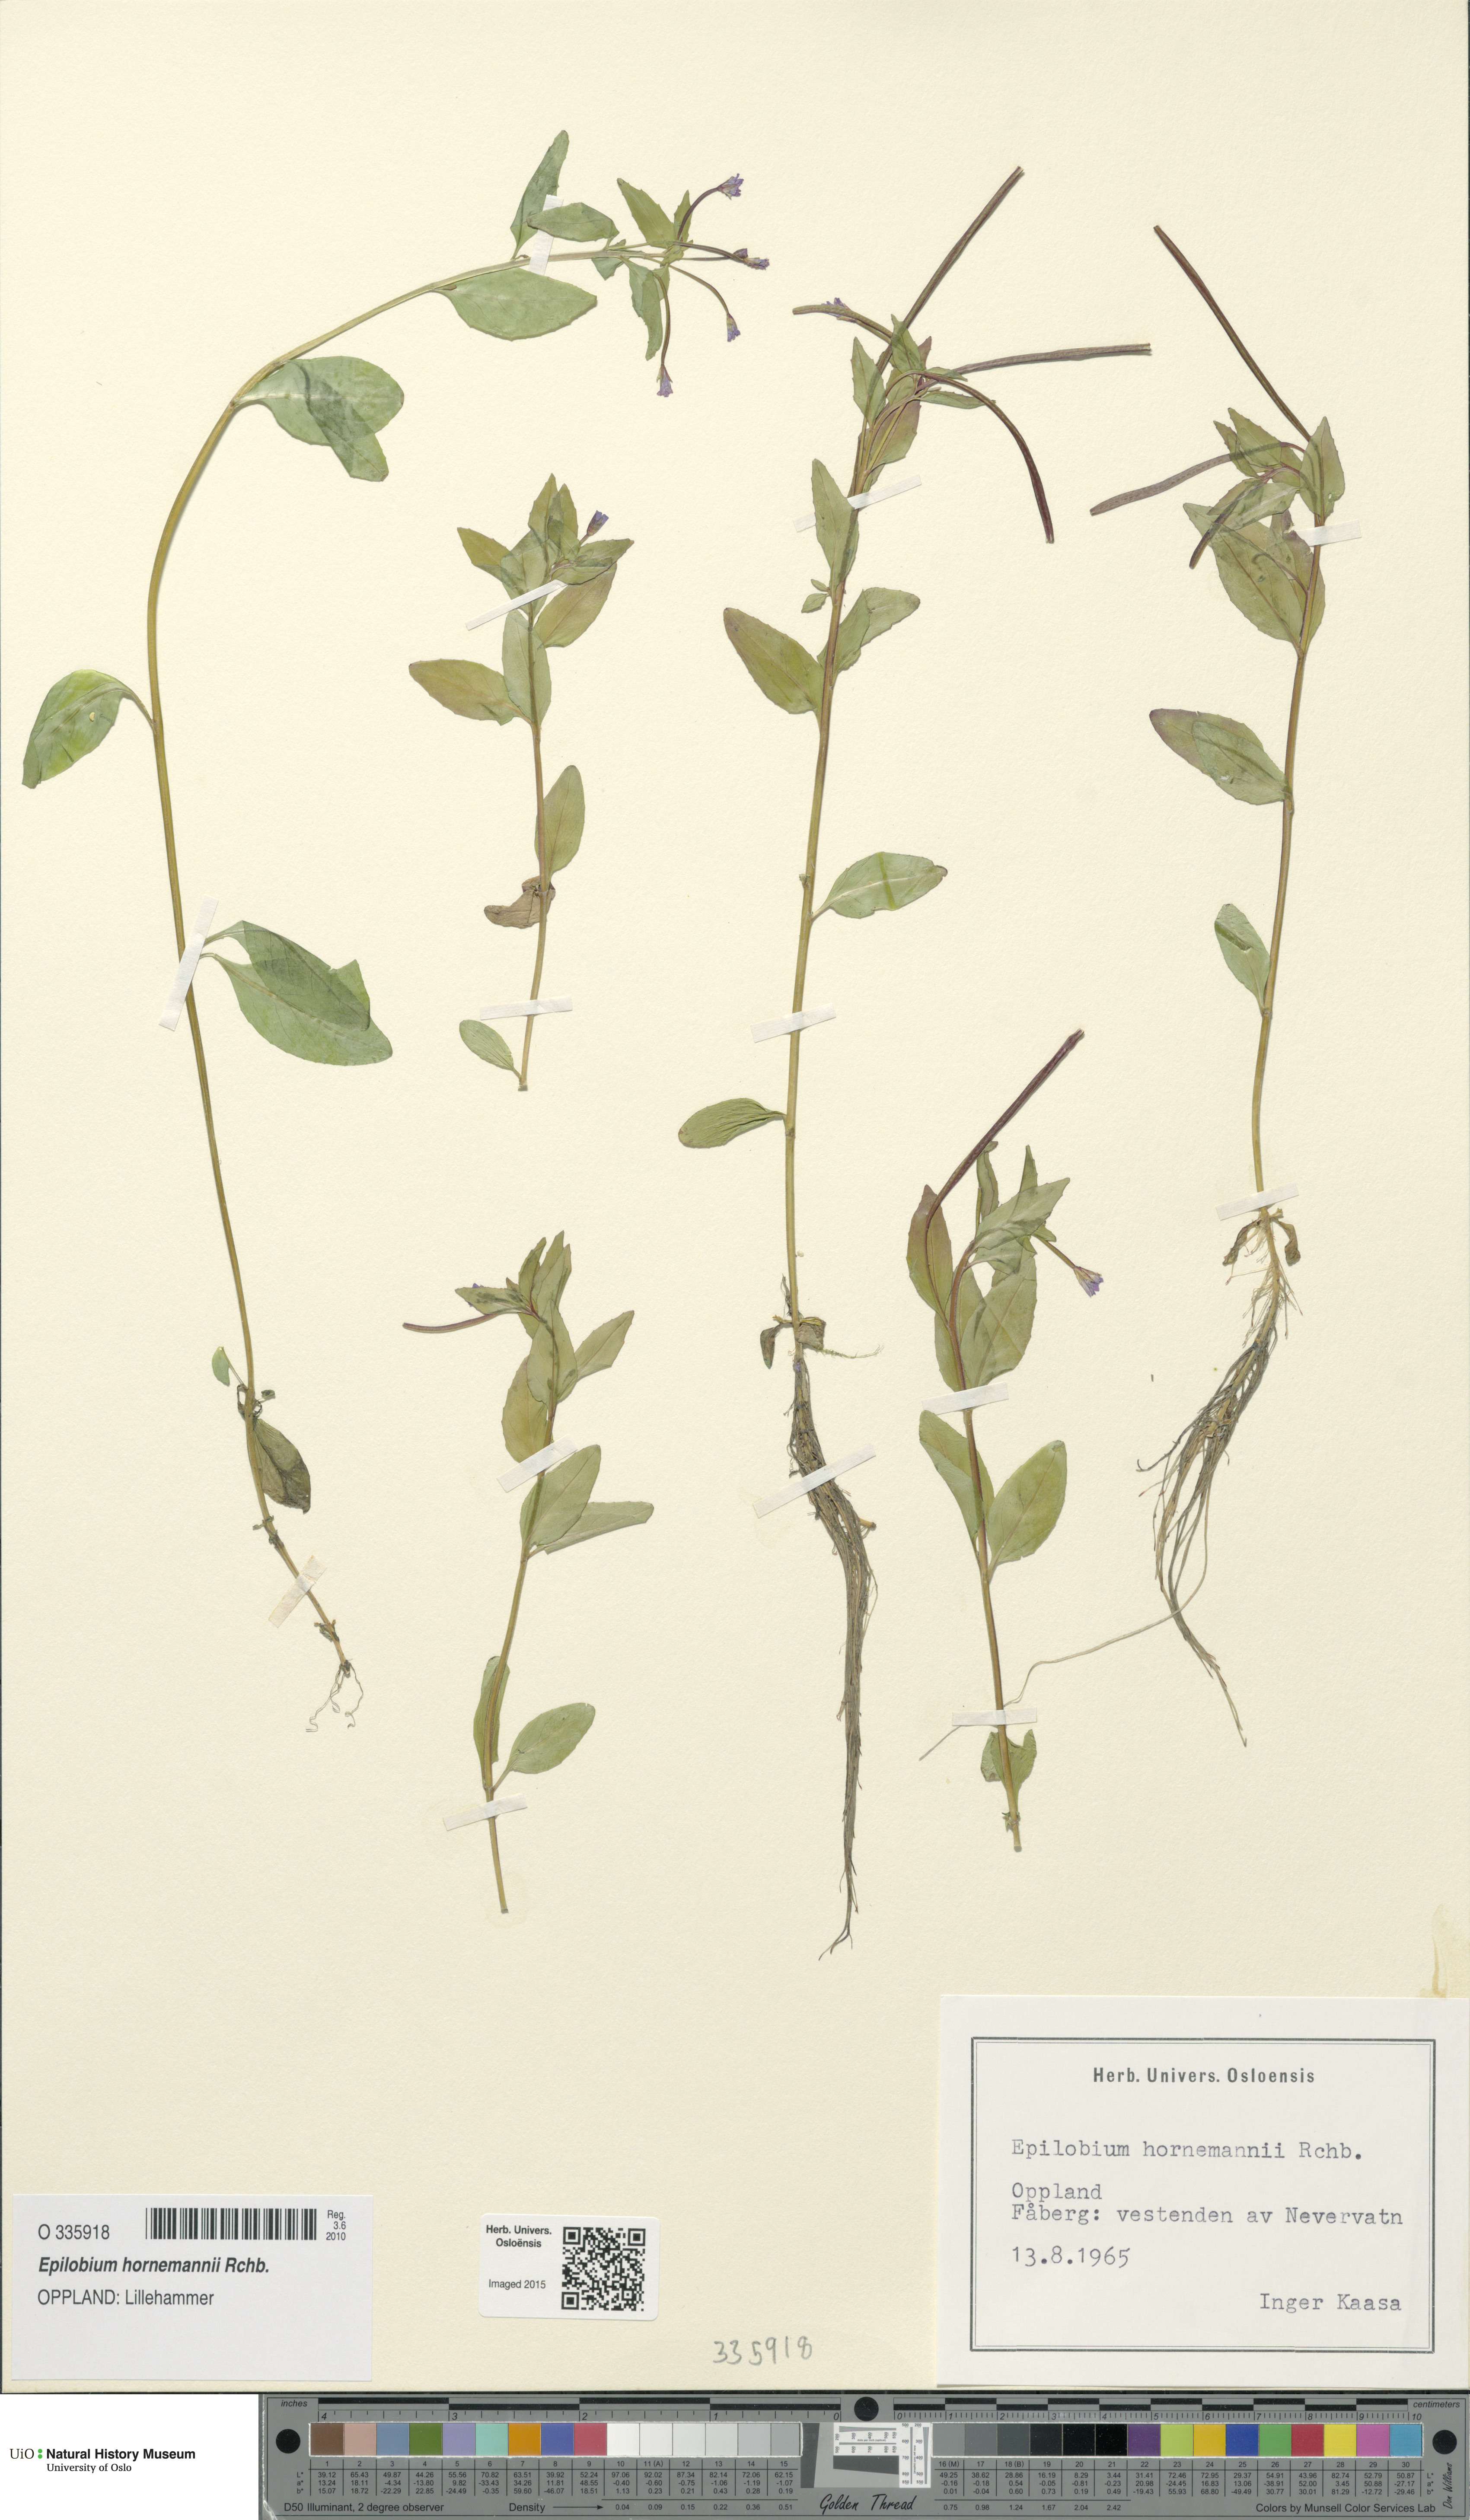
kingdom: Plantae
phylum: Tracheophyta
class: Magnoliopsida
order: Myrtales
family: Onagraceae
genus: Epilobium
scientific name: Epilobium hornemannii
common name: Hornemann's willowherb
